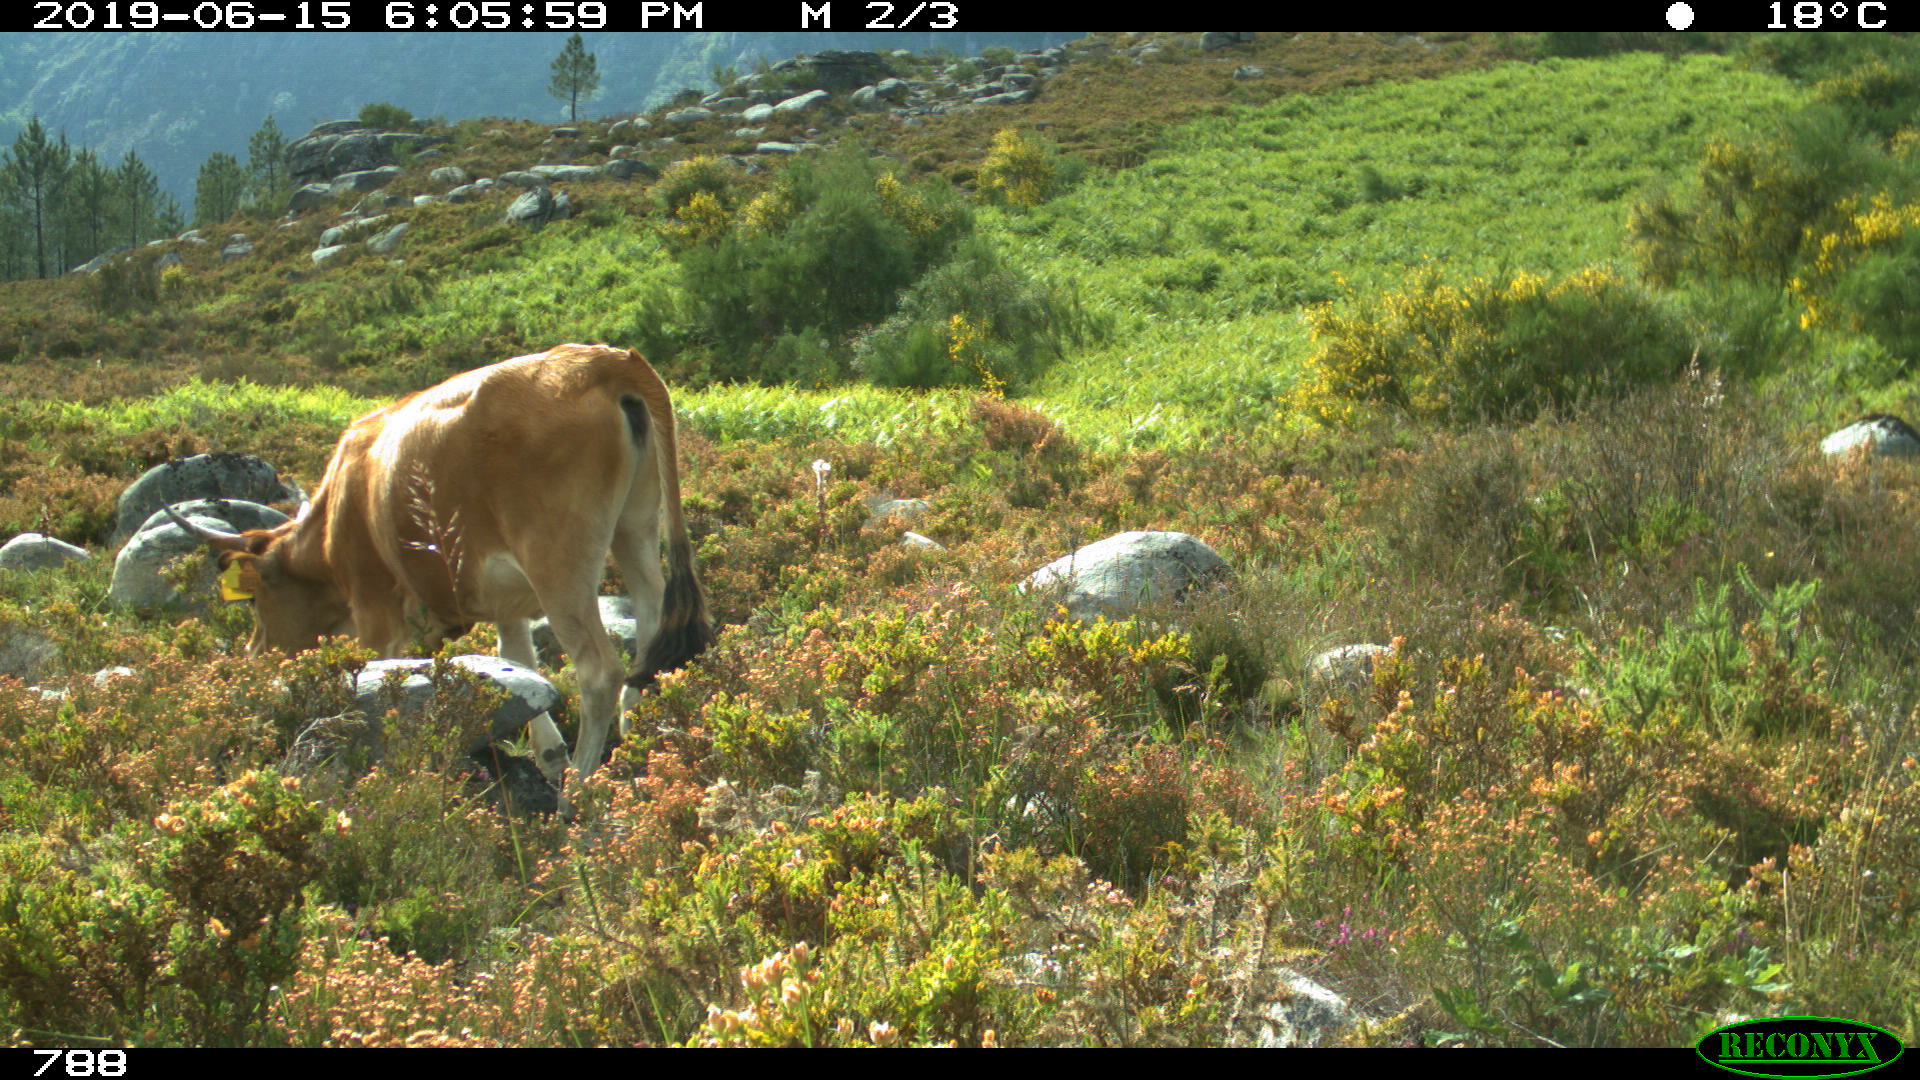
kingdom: Animalia
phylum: Chordata
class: Mammalia
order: Artiodactyla
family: Bovidae
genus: Bos
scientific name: Bos taurus
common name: Domesticated cattle
